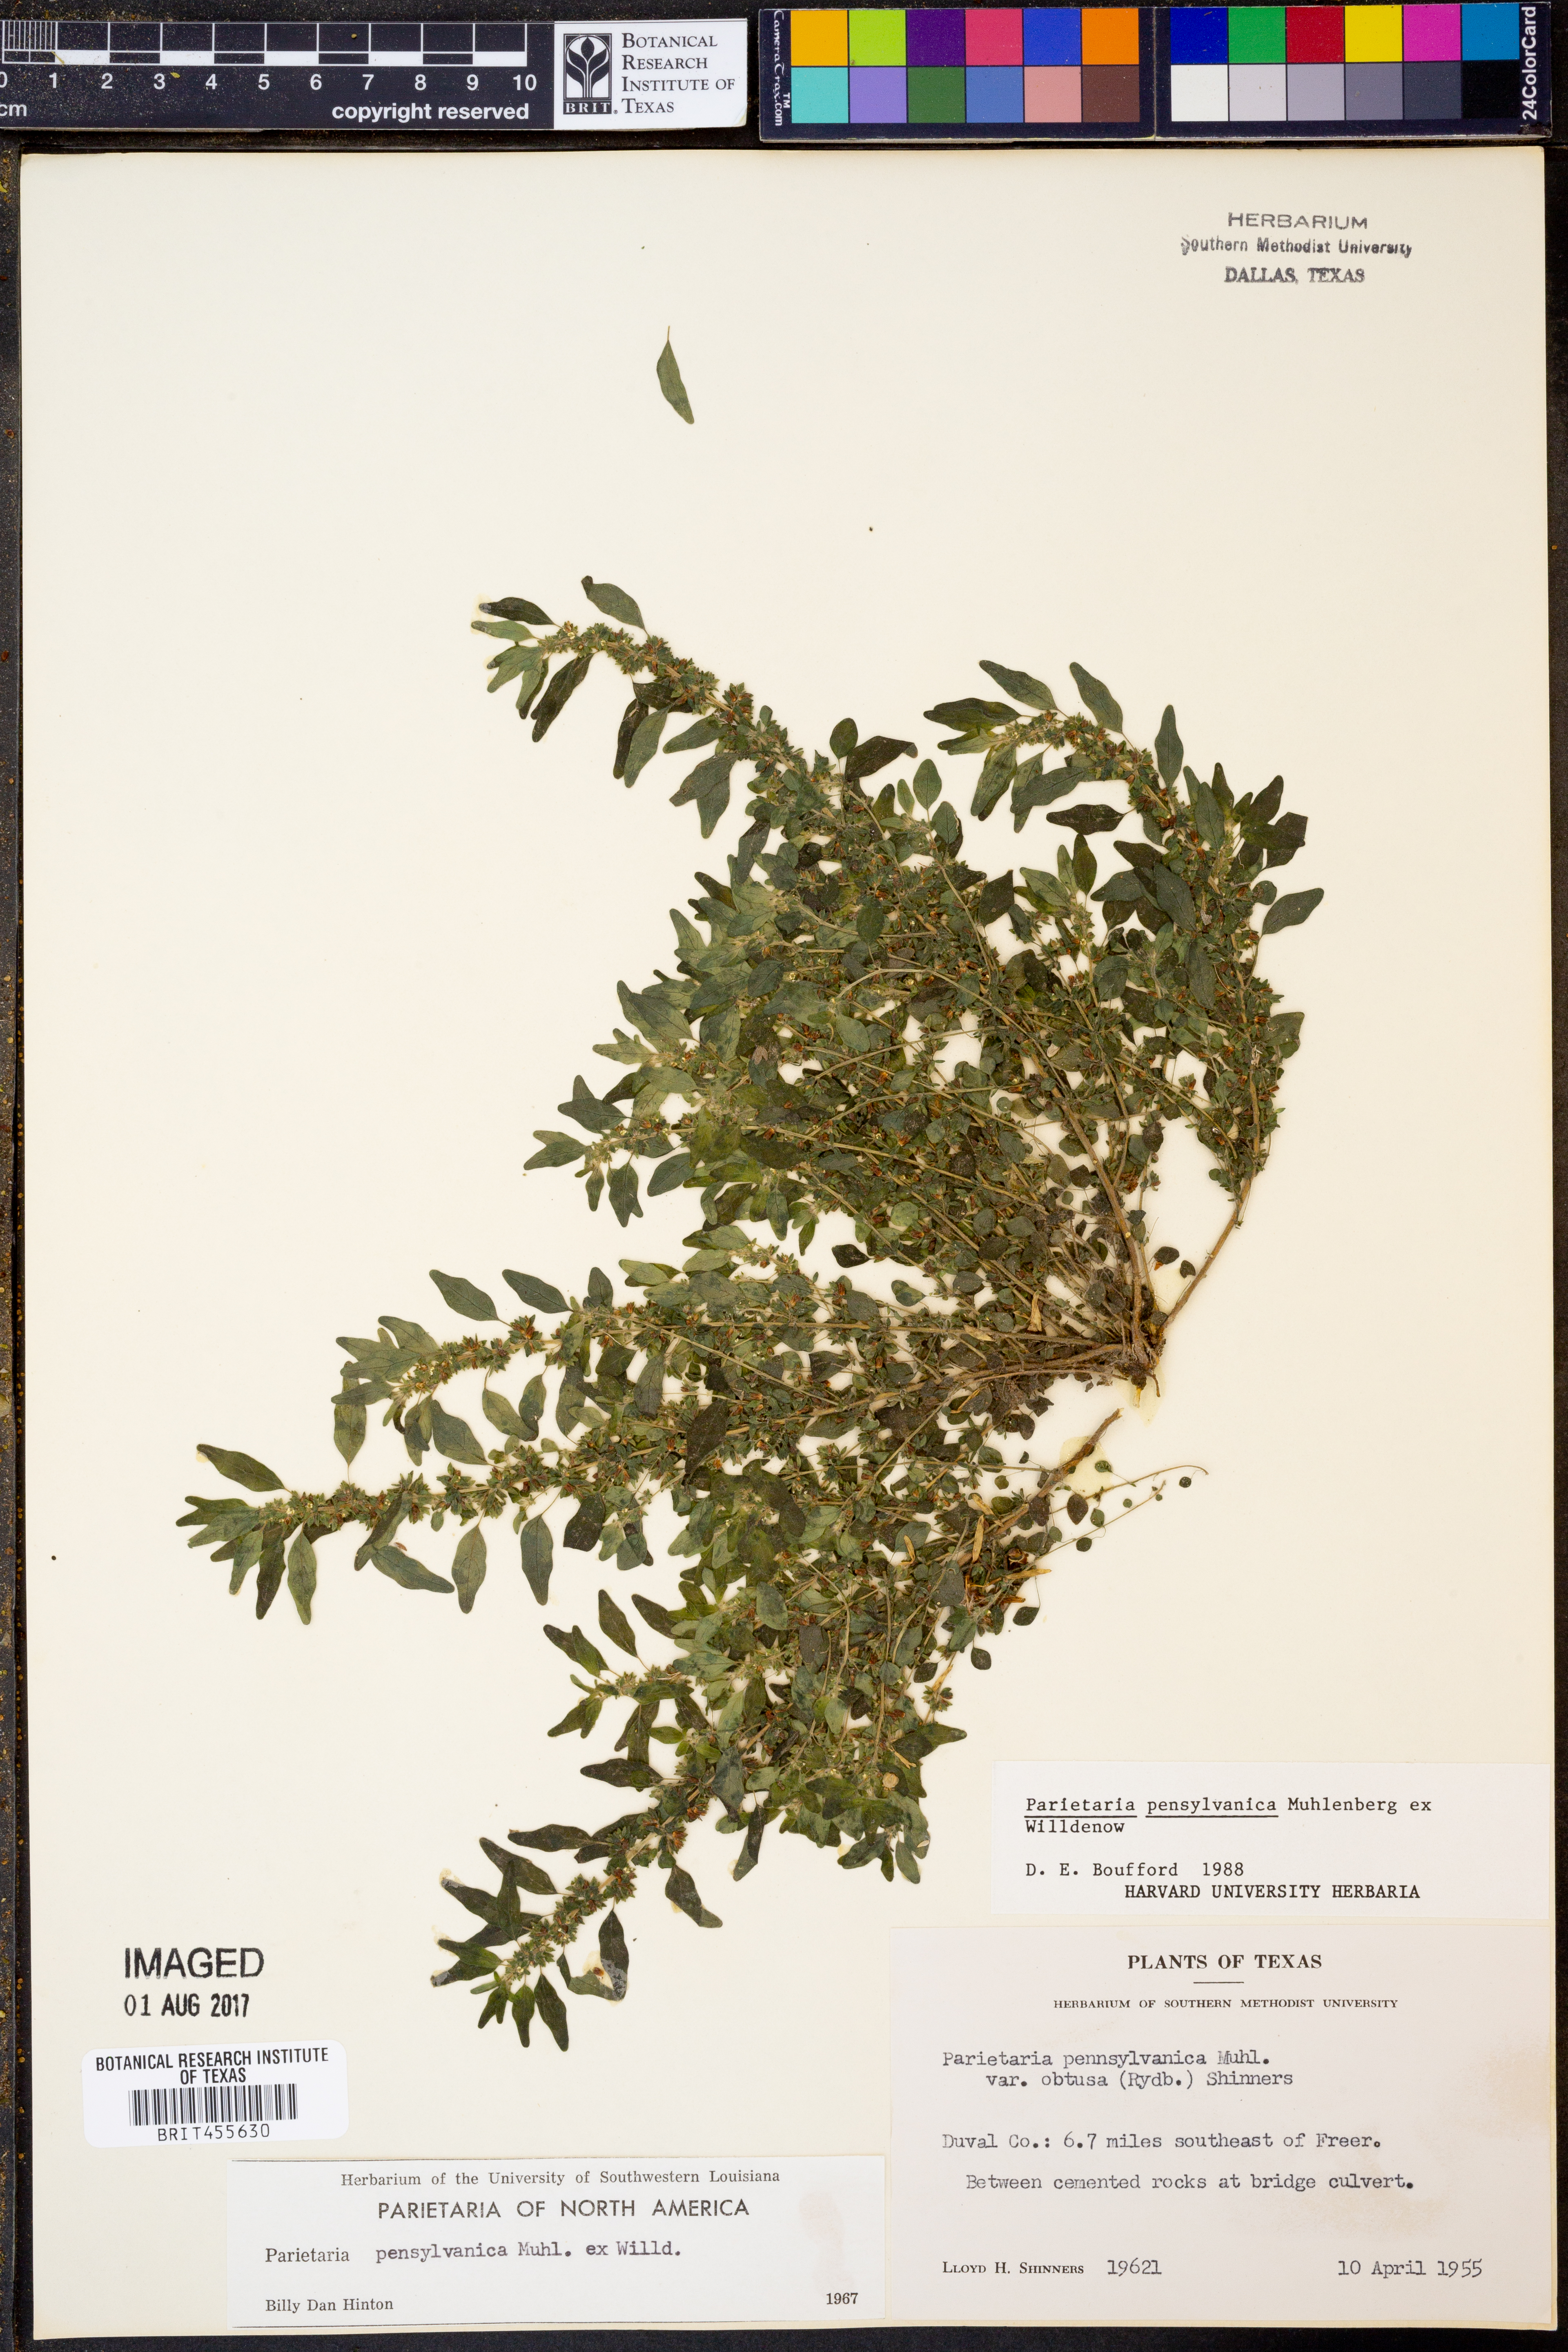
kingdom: Plantae
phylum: Tracheophyta
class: Magnoliopsida
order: Rosales
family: Urticaceae
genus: Parietaria
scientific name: Parietaria pensylvanica
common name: Pennsylvania pellitory
